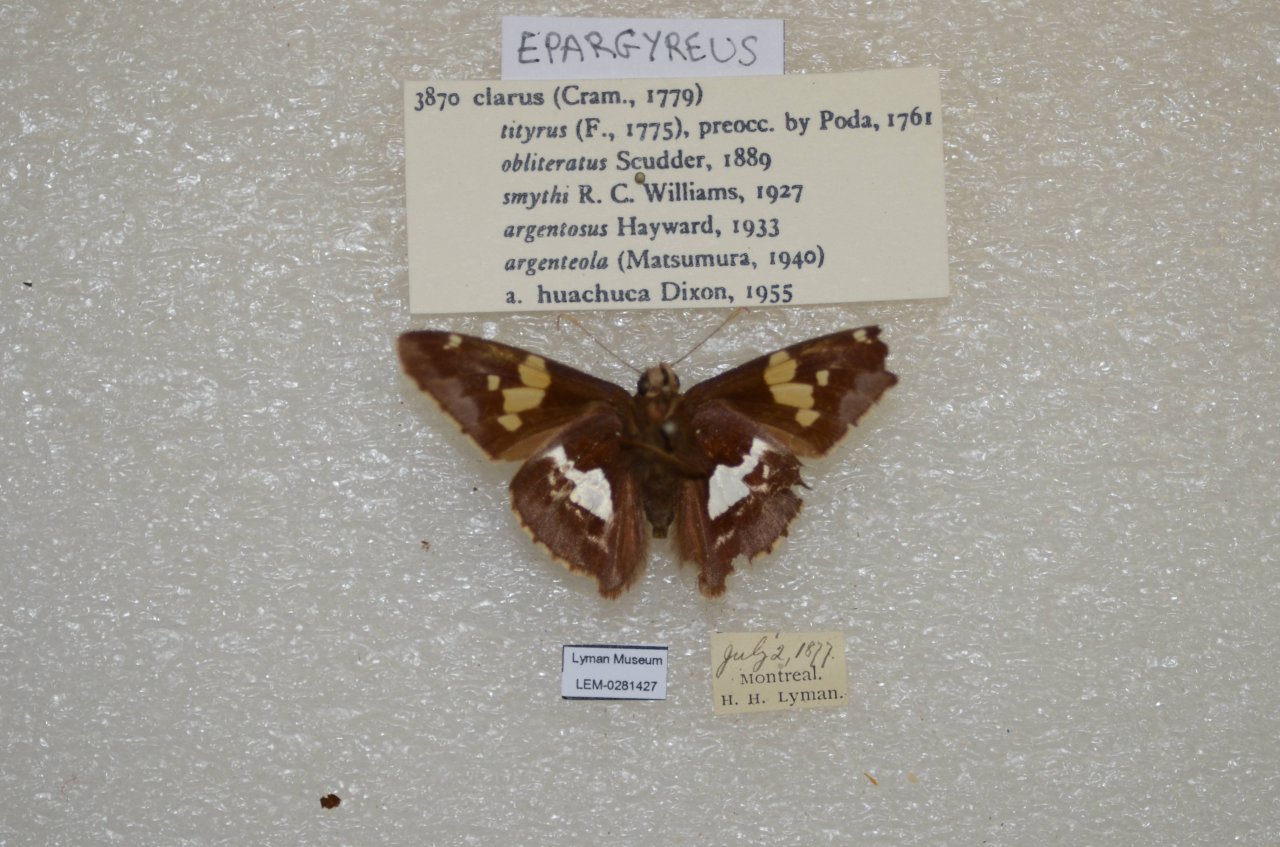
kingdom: Animalia
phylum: Arthropoda
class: Insecta
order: Lepidoptera
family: Hesperiidae
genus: Epargyreus
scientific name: Epargyreus clarus
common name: Silver-spotted Skipper
